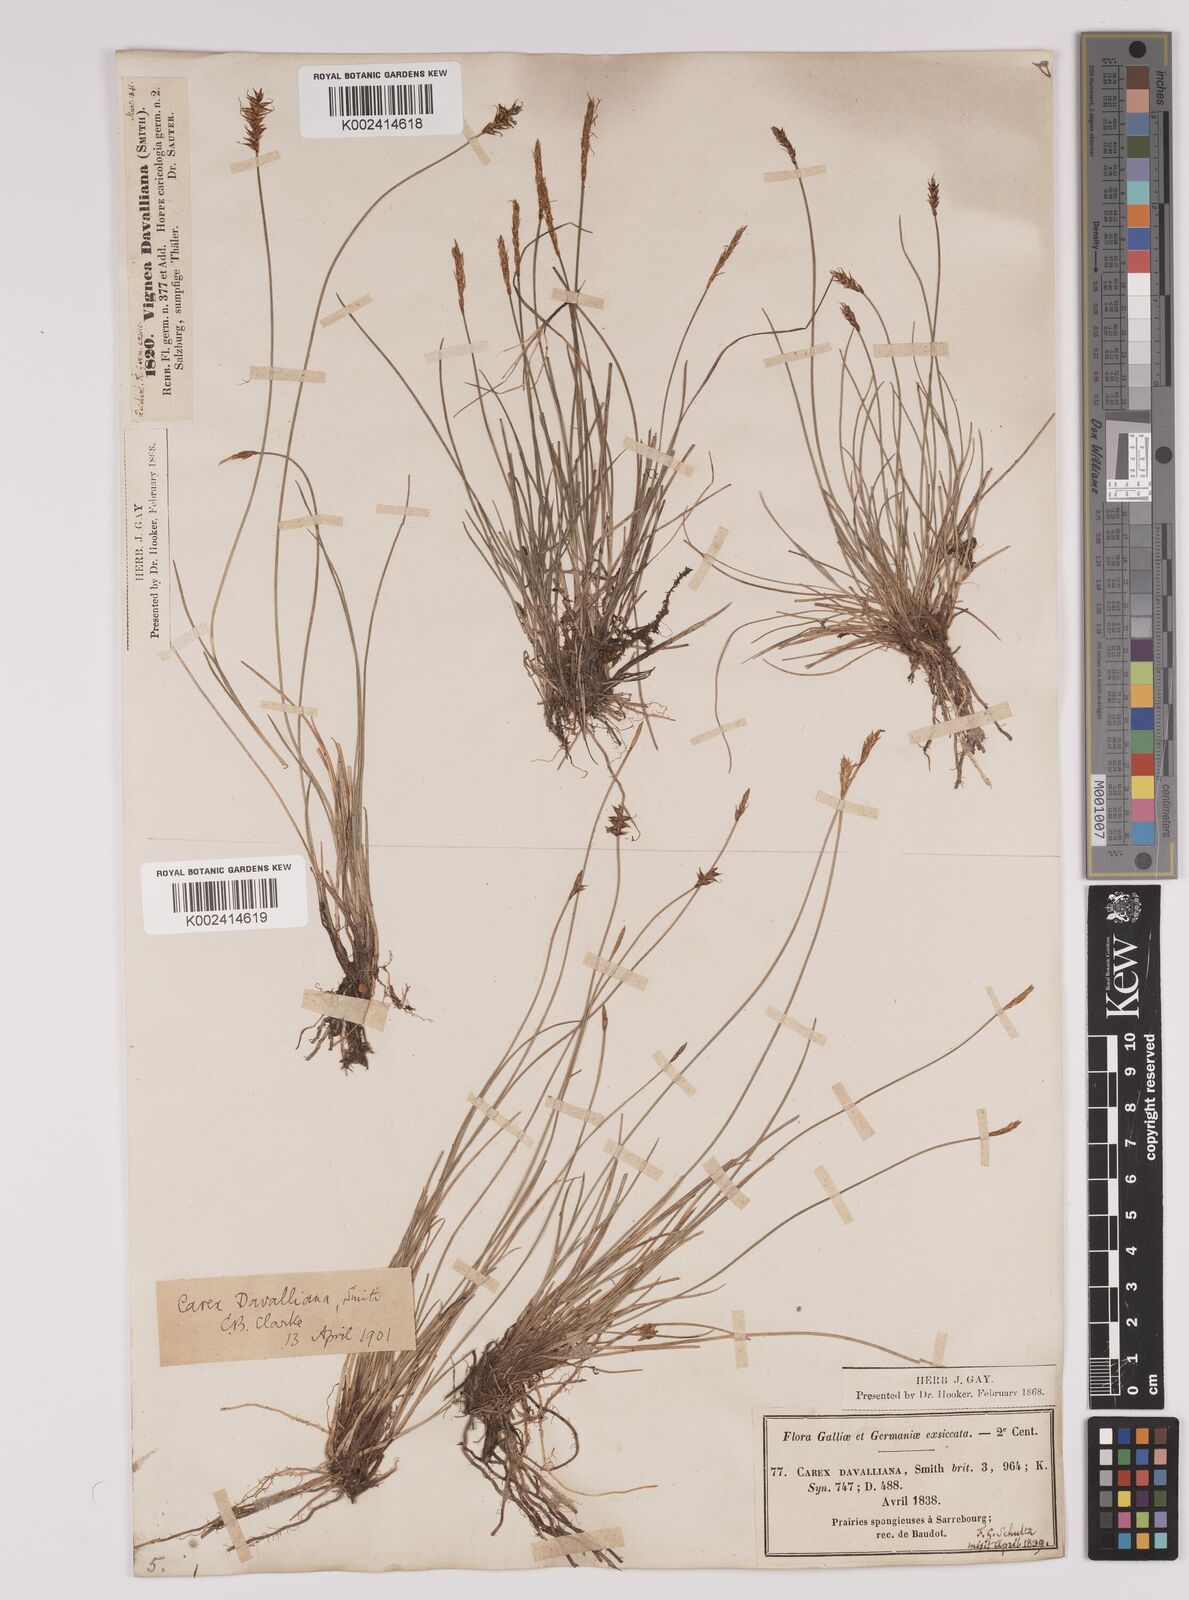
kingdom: Plantae
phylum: Tracheophyta
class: Liliopsida
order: Poales
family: Cyperaceae
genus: Carex
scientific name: Carex davalliana
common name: Davall's sedge
